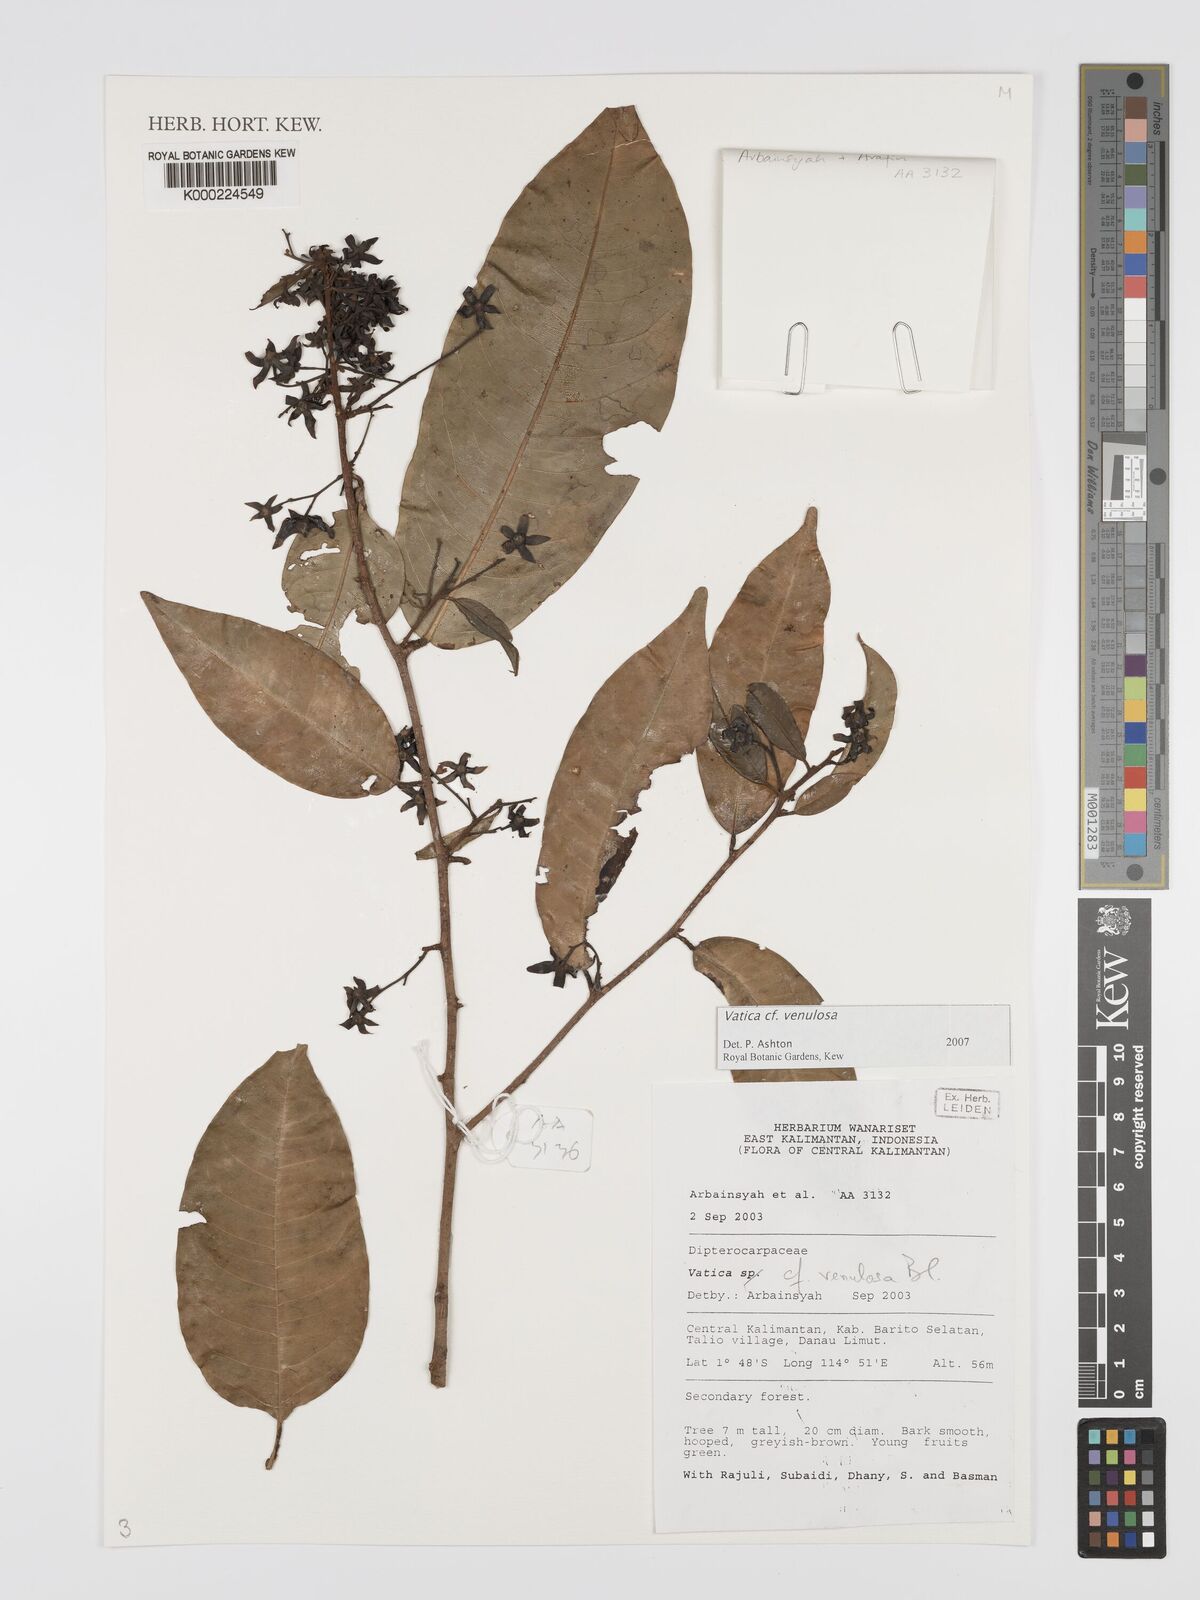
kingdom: Plantae
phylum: Tracheophyta
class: Magnoliopsida
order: Malvales
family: Dipterocarpaceae
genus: Vatica
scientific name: Vatica venulosa
